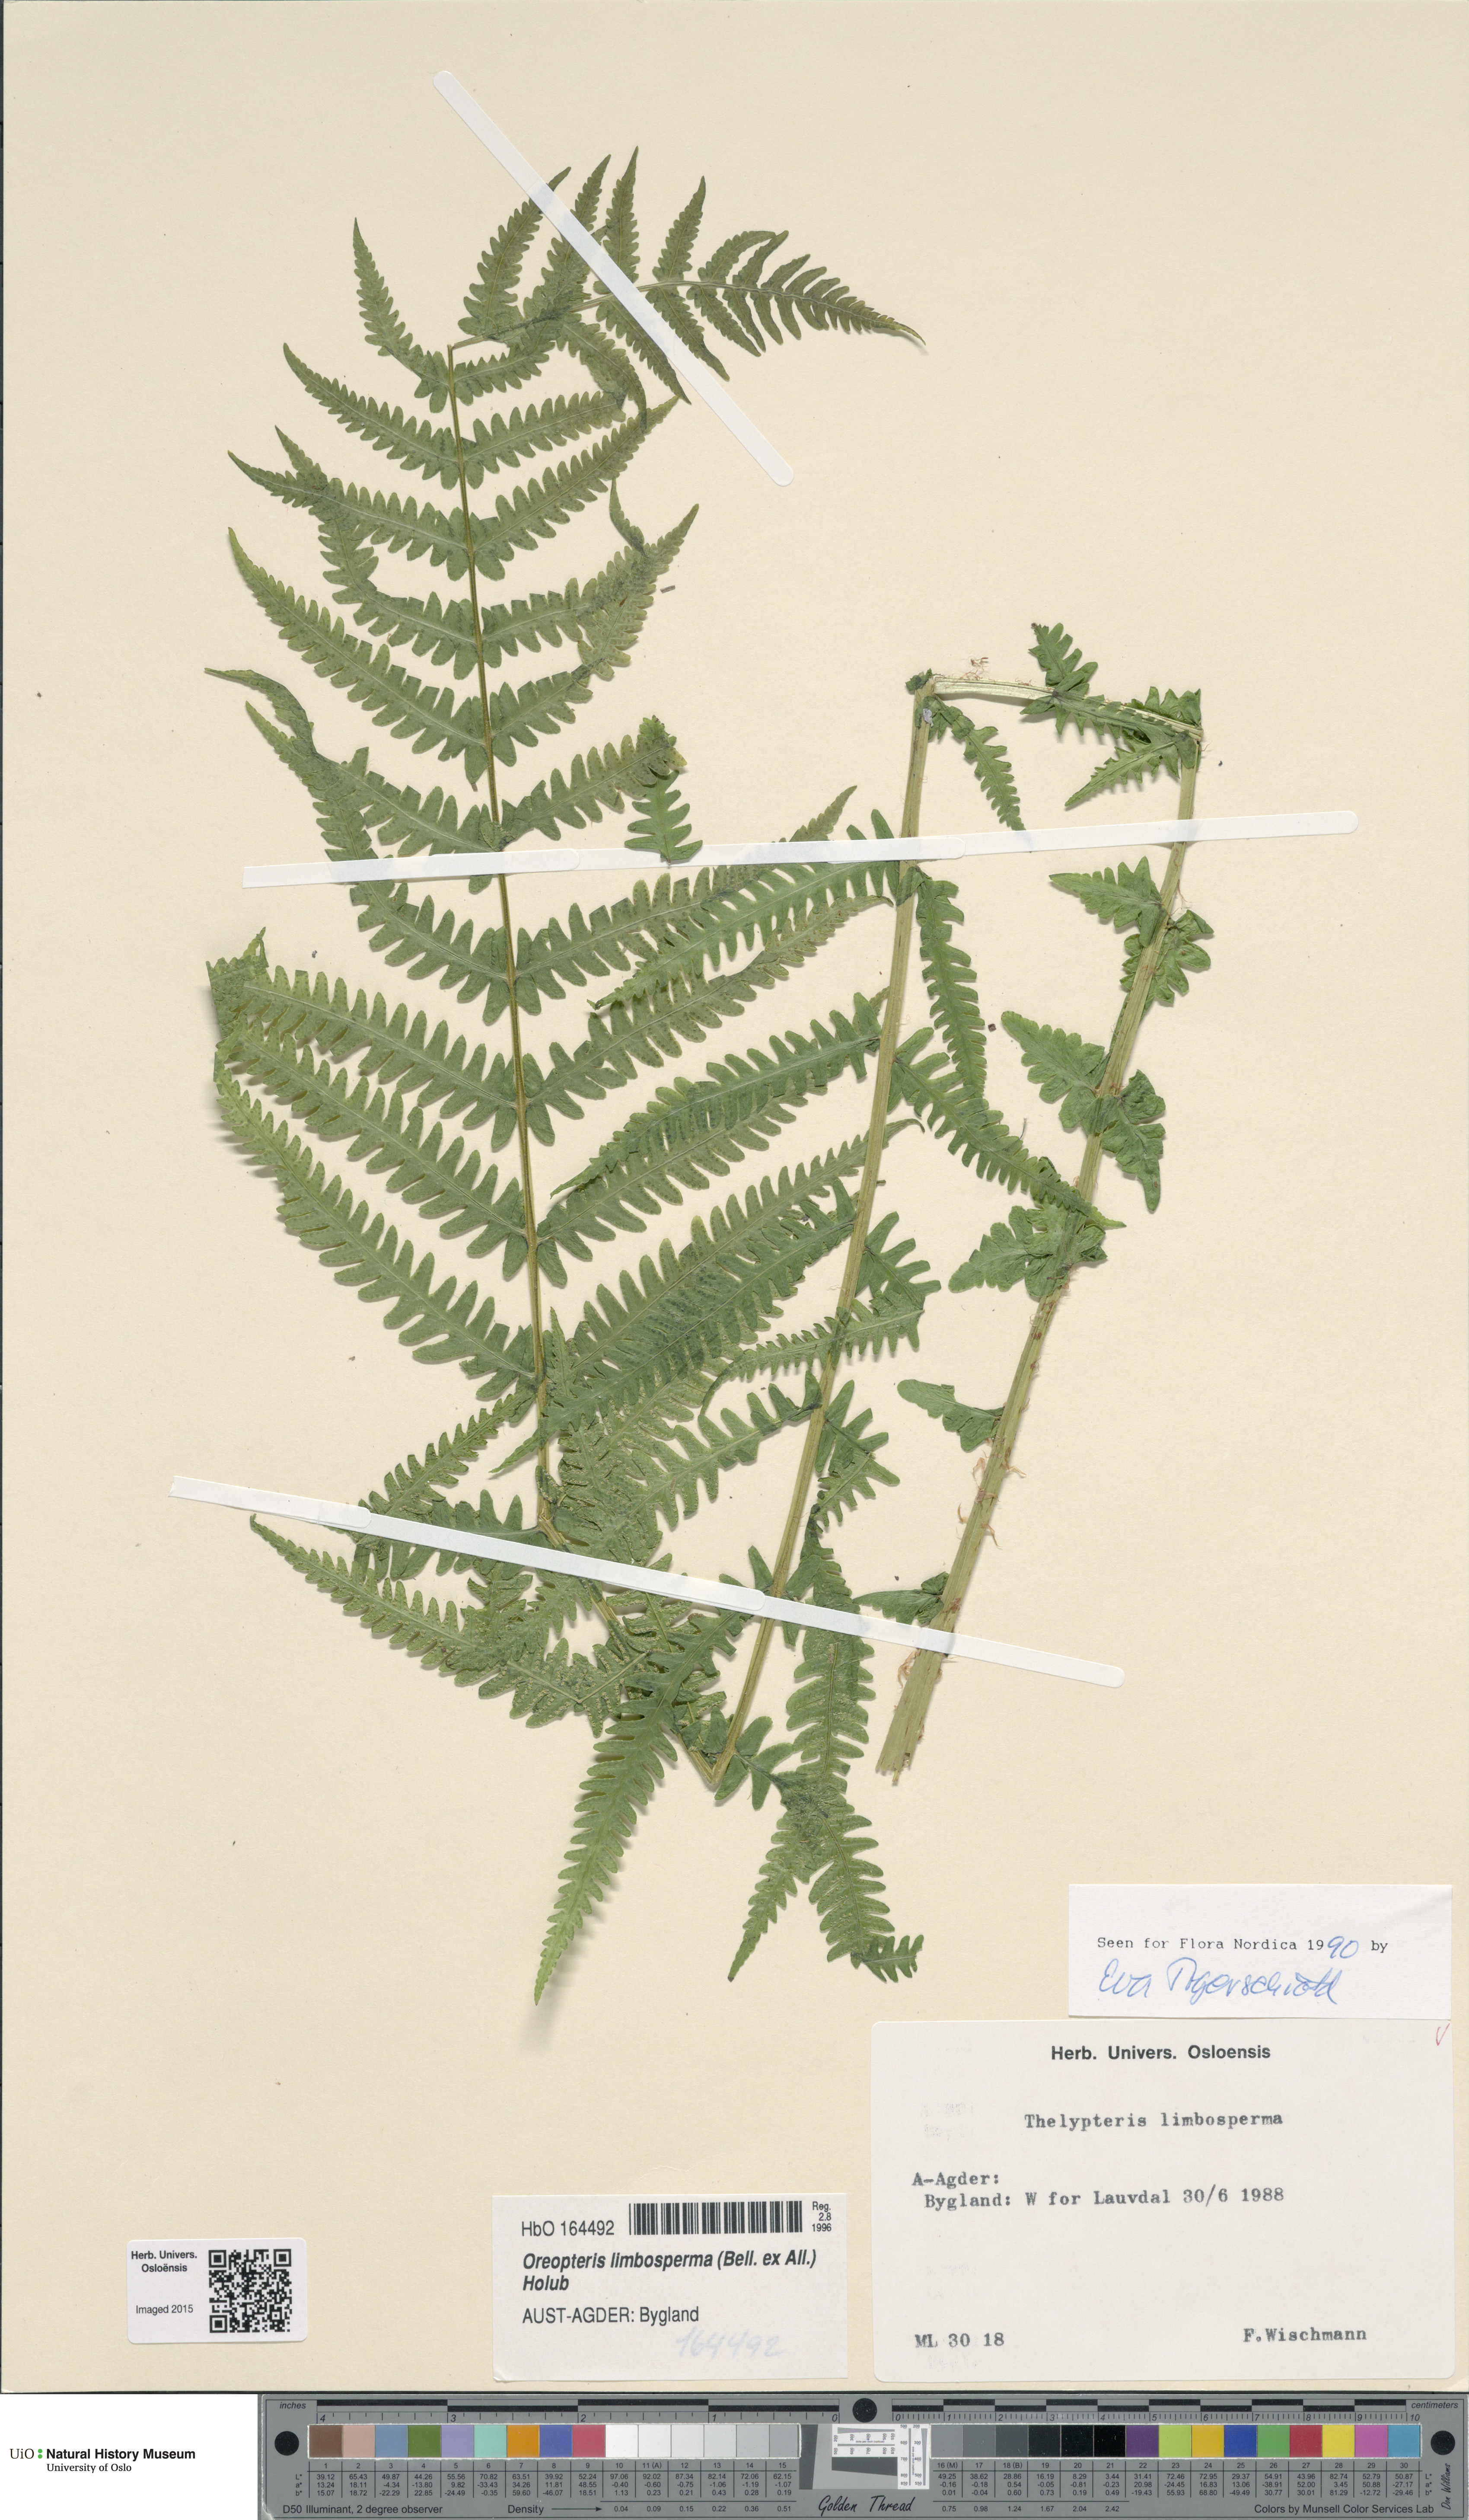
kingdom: Plantae
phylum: Tracheophyta
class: Polypodiopsida
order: Polypodiales
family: Thelypteridaceae
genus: Oreopteris
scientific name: Oreopteris limbosperma
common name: Lemon-scented fern
